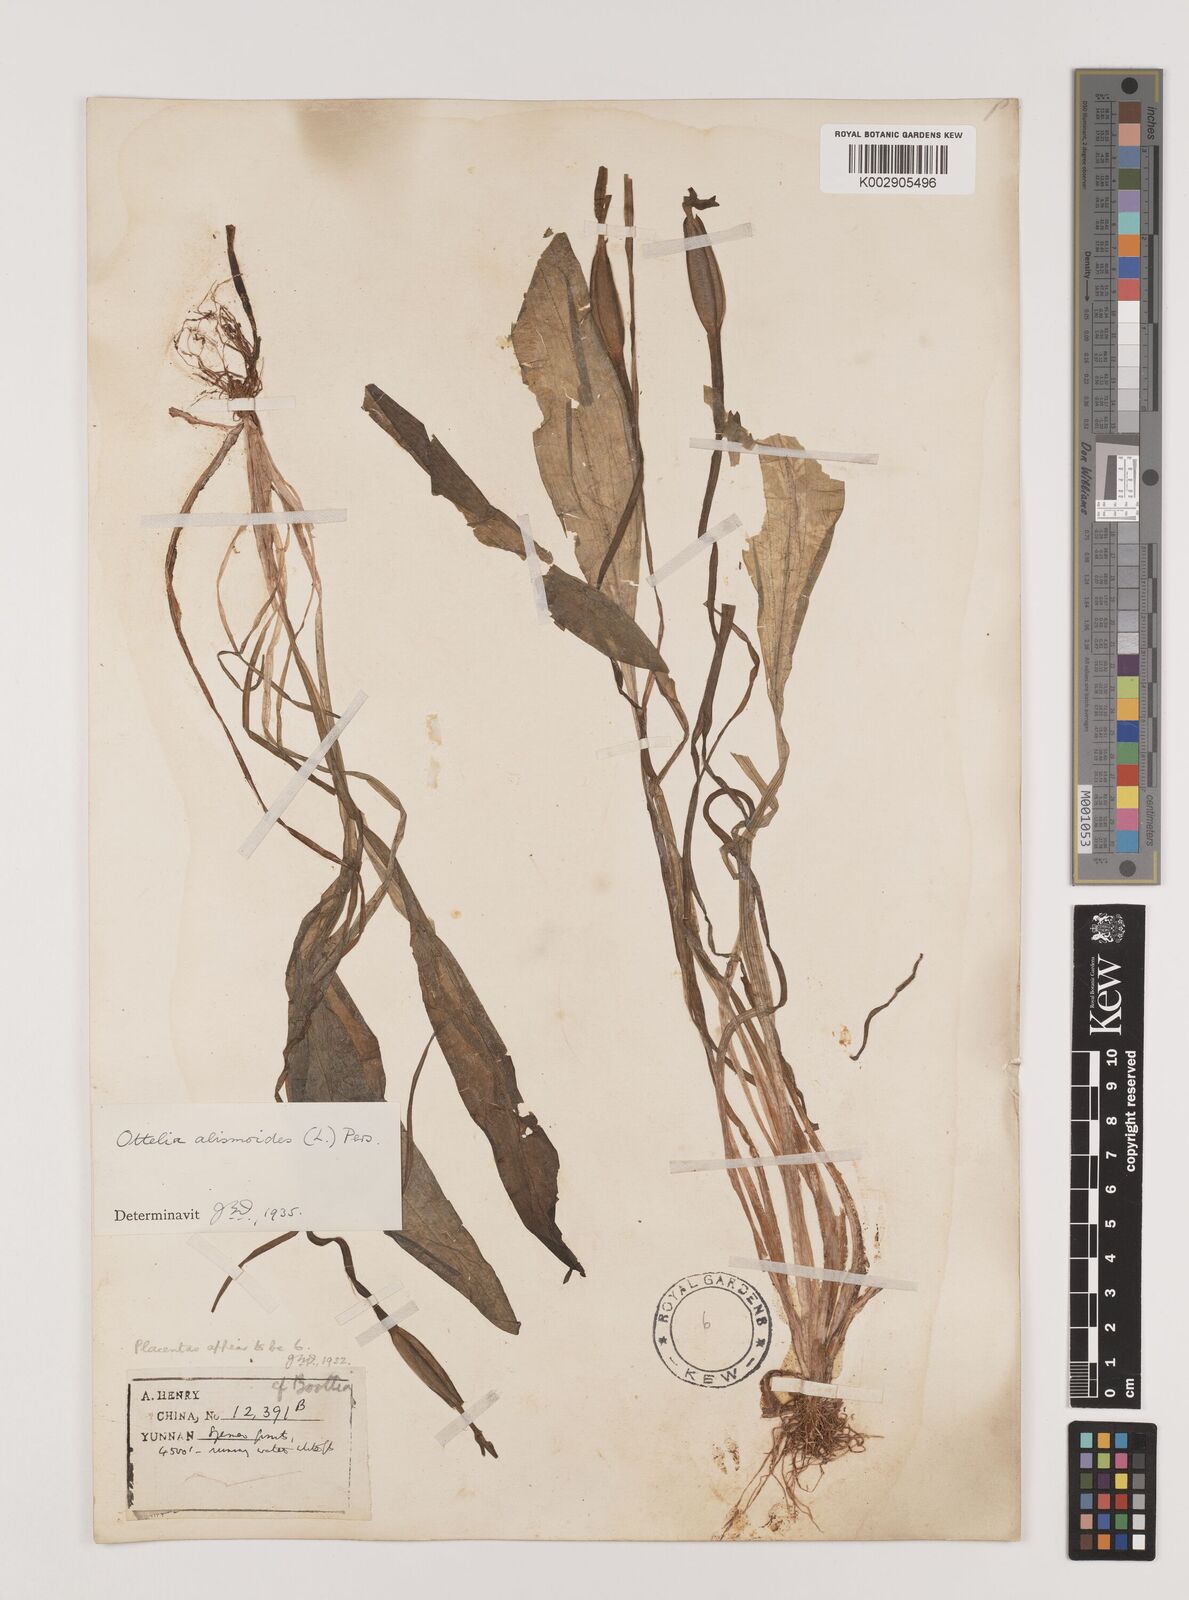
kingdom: Plantae
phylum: Tracheophyta
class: Liliopsida
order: Alismatales
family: Hydrocharitaceae
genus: Ottelia
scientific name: Ottelia alismoides
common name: Duck-lettuce
